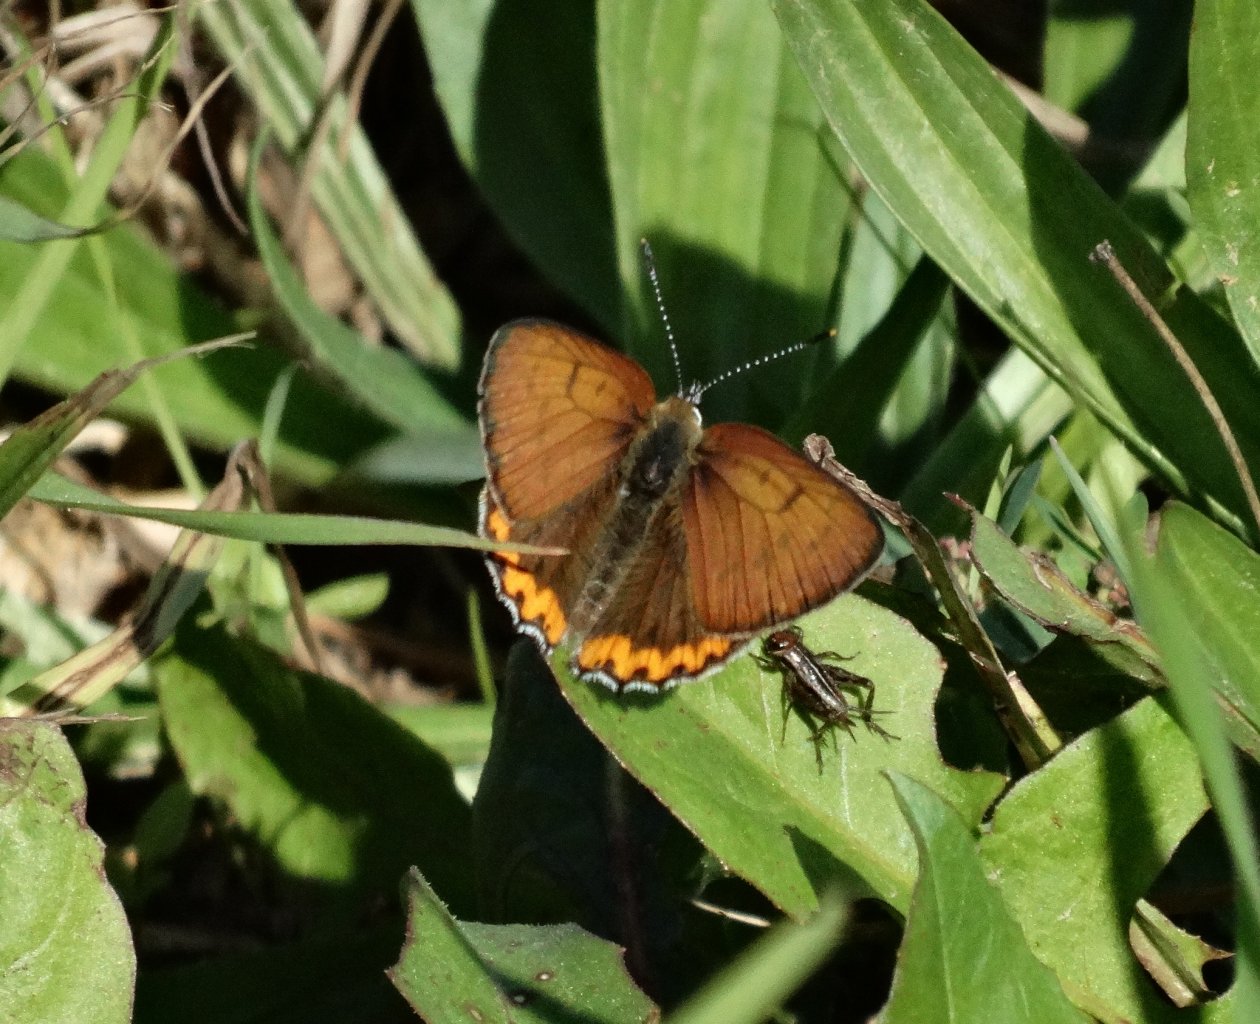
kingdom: Animalia
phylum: Arthropoda
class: Insecta
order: Lepidoptera
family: Sesiidae
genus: Sesia
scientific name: Sesia Lycaena hyllus
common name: Bronze Copper
